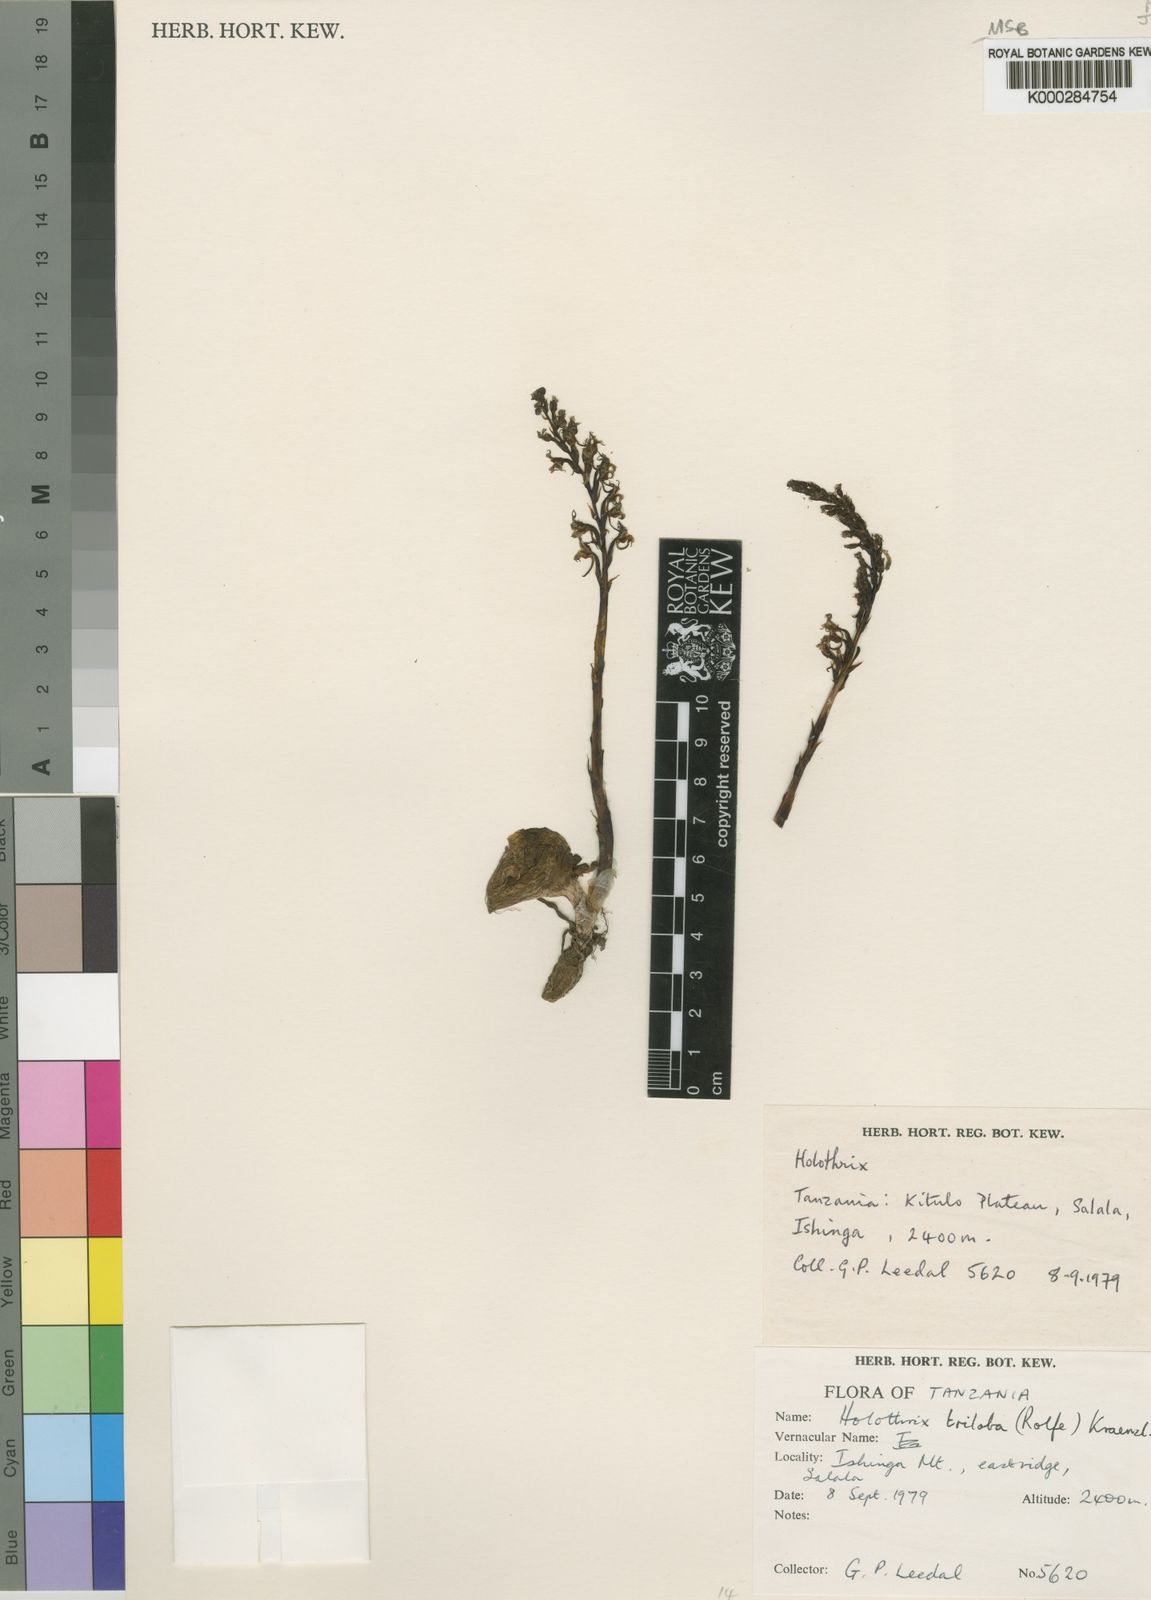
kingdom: Plantae
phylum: Tracheophyta
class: Liliopsida
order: Asparagales
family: Orchidaceae
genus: Holothrix
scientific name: Holothrix triloba
